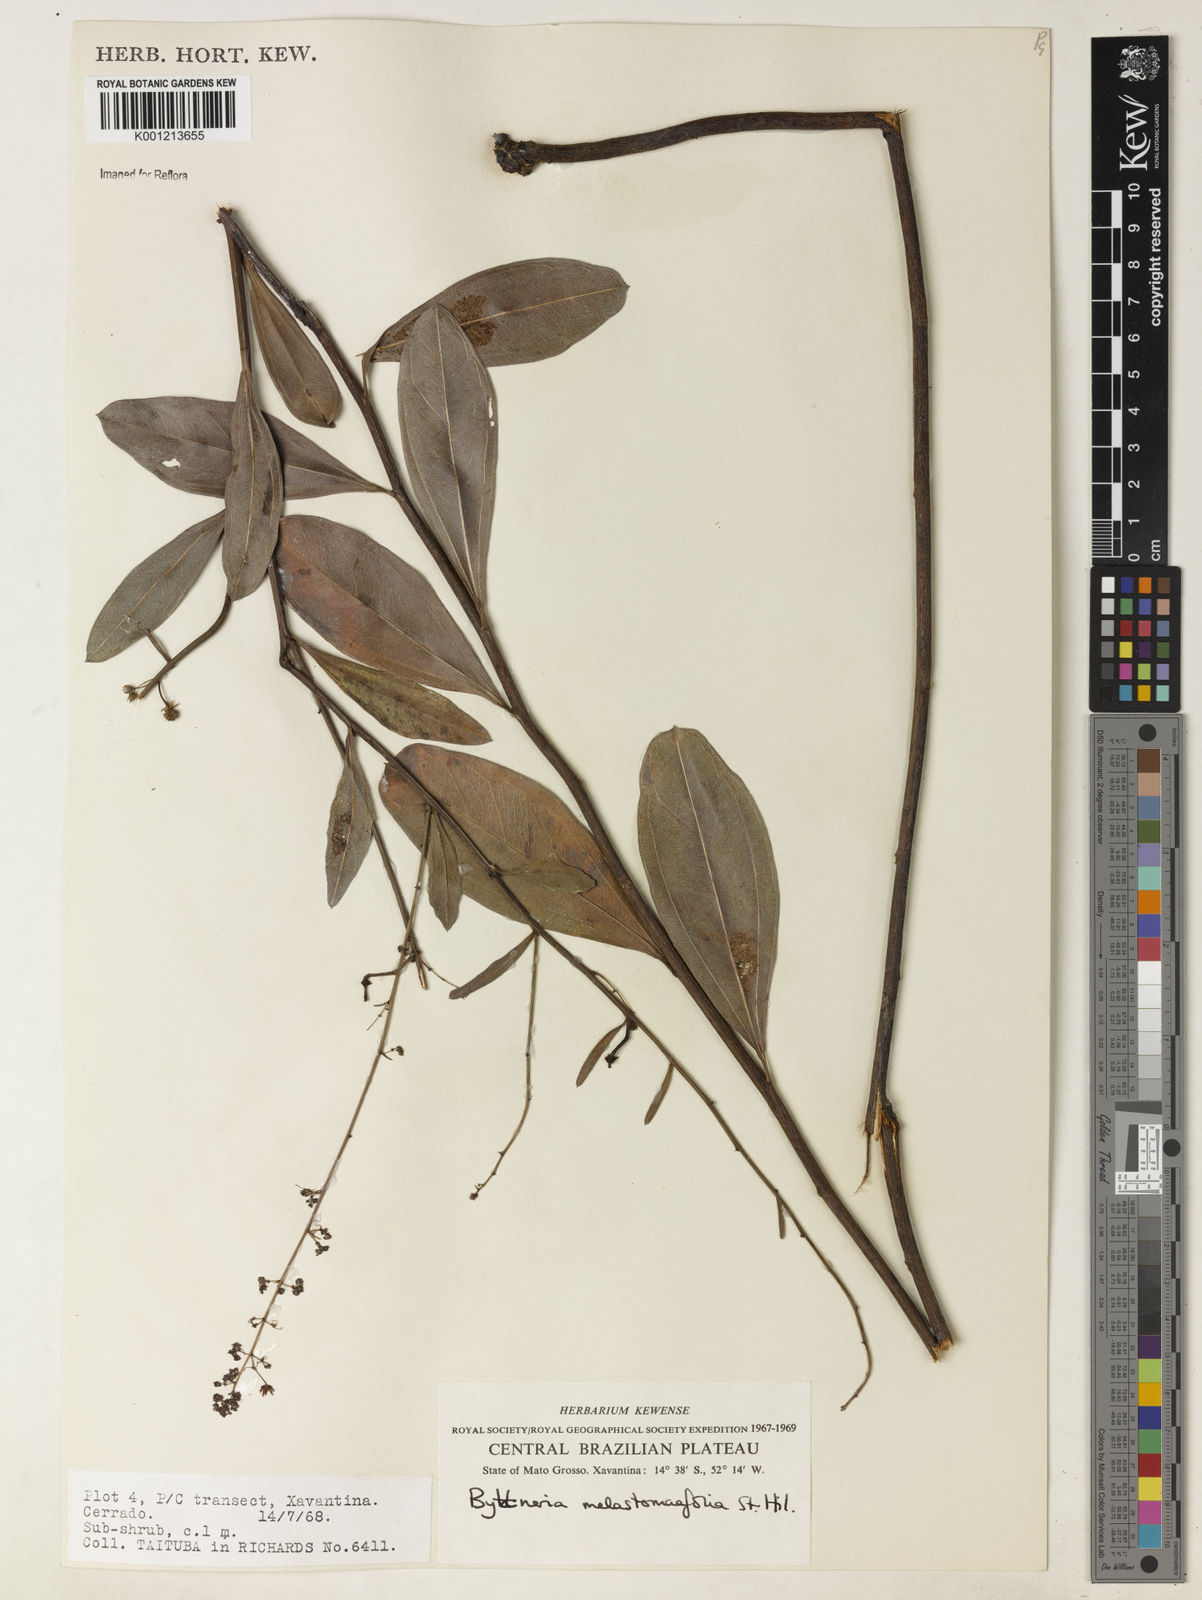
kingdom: Plantae
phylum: Tracheophyta
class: Magnoliopsida
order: Malvales
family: Malvaceae
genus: Byttneria
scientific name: Byttneria melastomifolia
